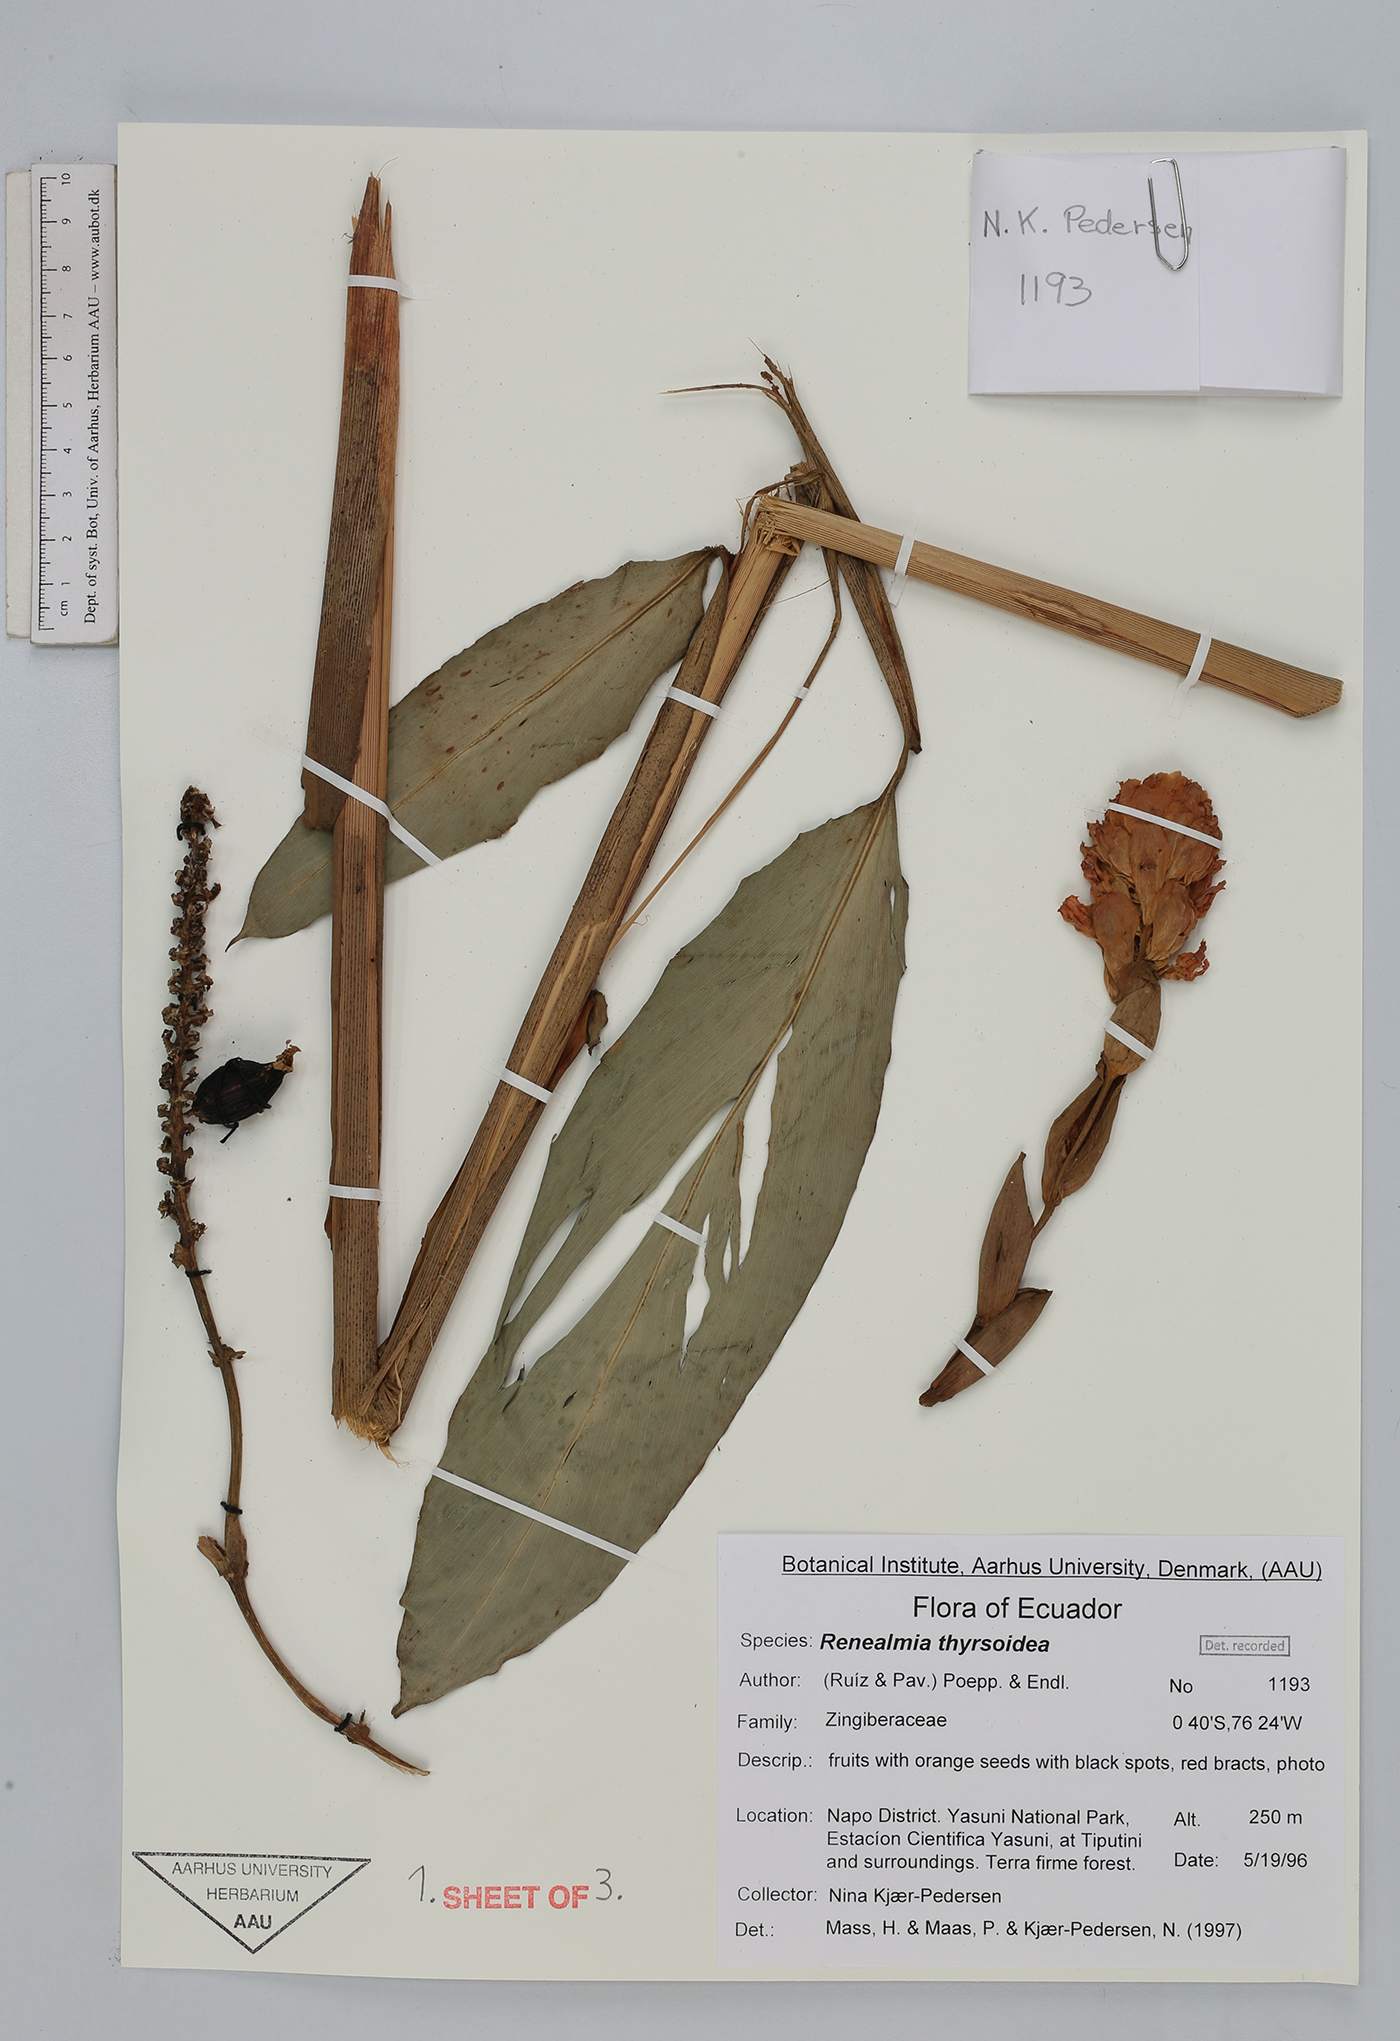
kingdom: Plantae
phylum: Tracheophyta
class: Liliopsida
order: Zingiberales
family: Zingiberaceae
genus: Renealmia
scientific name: Renealmia thyrsoidea
